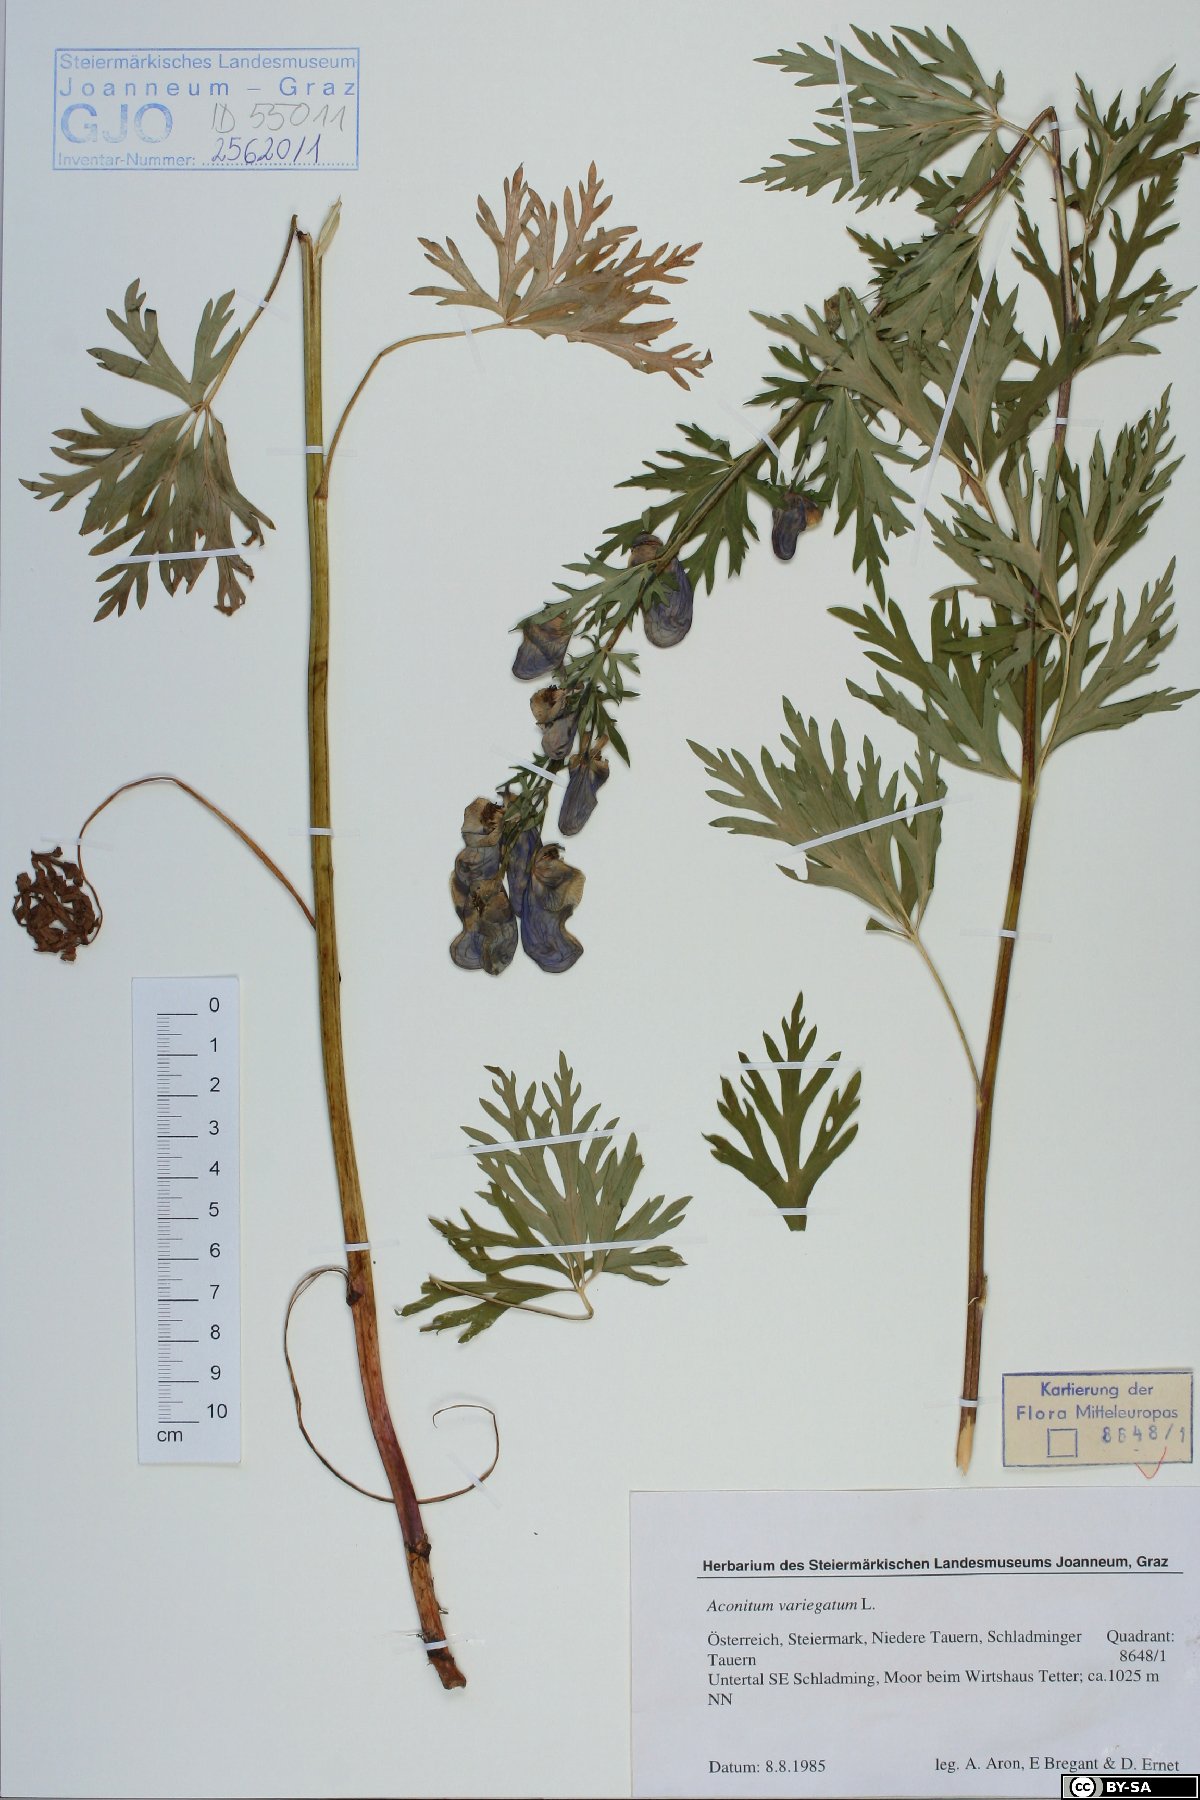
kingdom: Plantae
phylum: Tracheophyta
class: Magnoliopsida
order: Ranunculales
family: Ranunculaceae
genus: Aconitum
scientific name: Aconitum variegatum
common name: Manchurian monkshood
